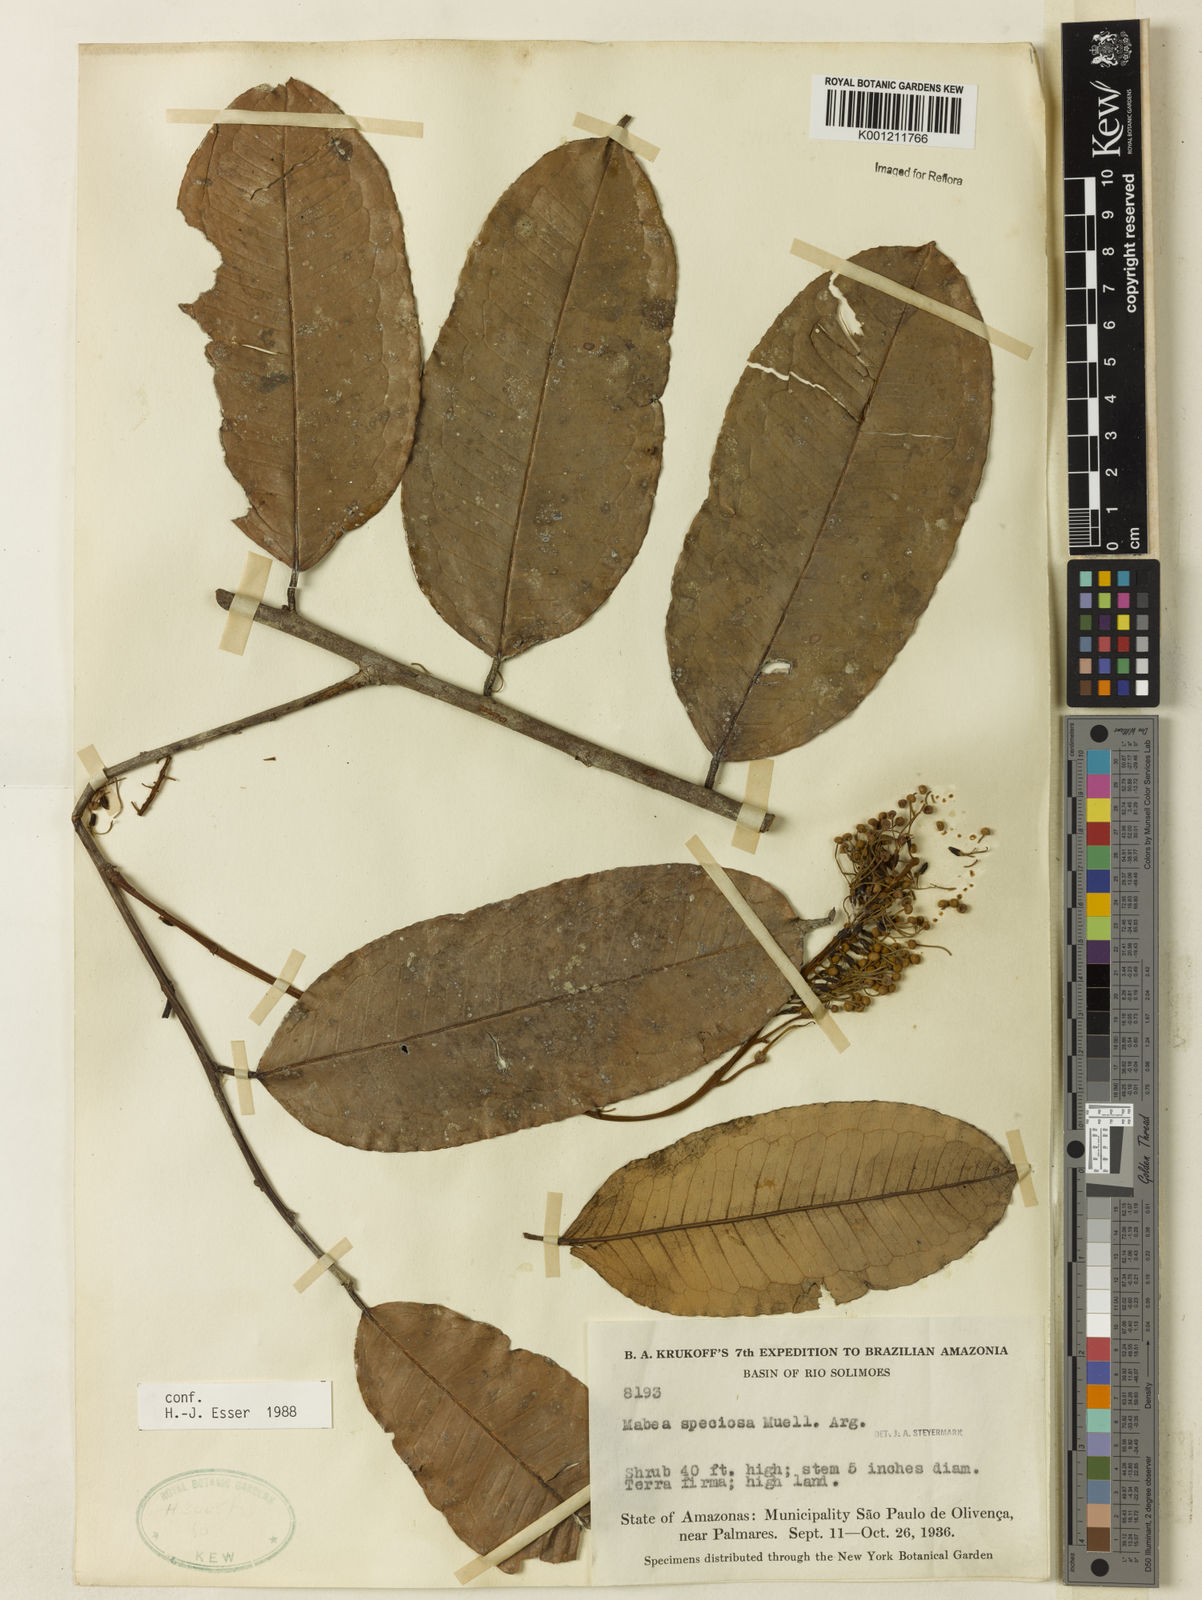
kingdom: Plantae
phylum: Tracheophyta
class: Magnoliopsida
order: Malpighiales
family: Euphorbiaceae
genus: Mabea
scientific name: Mabea
